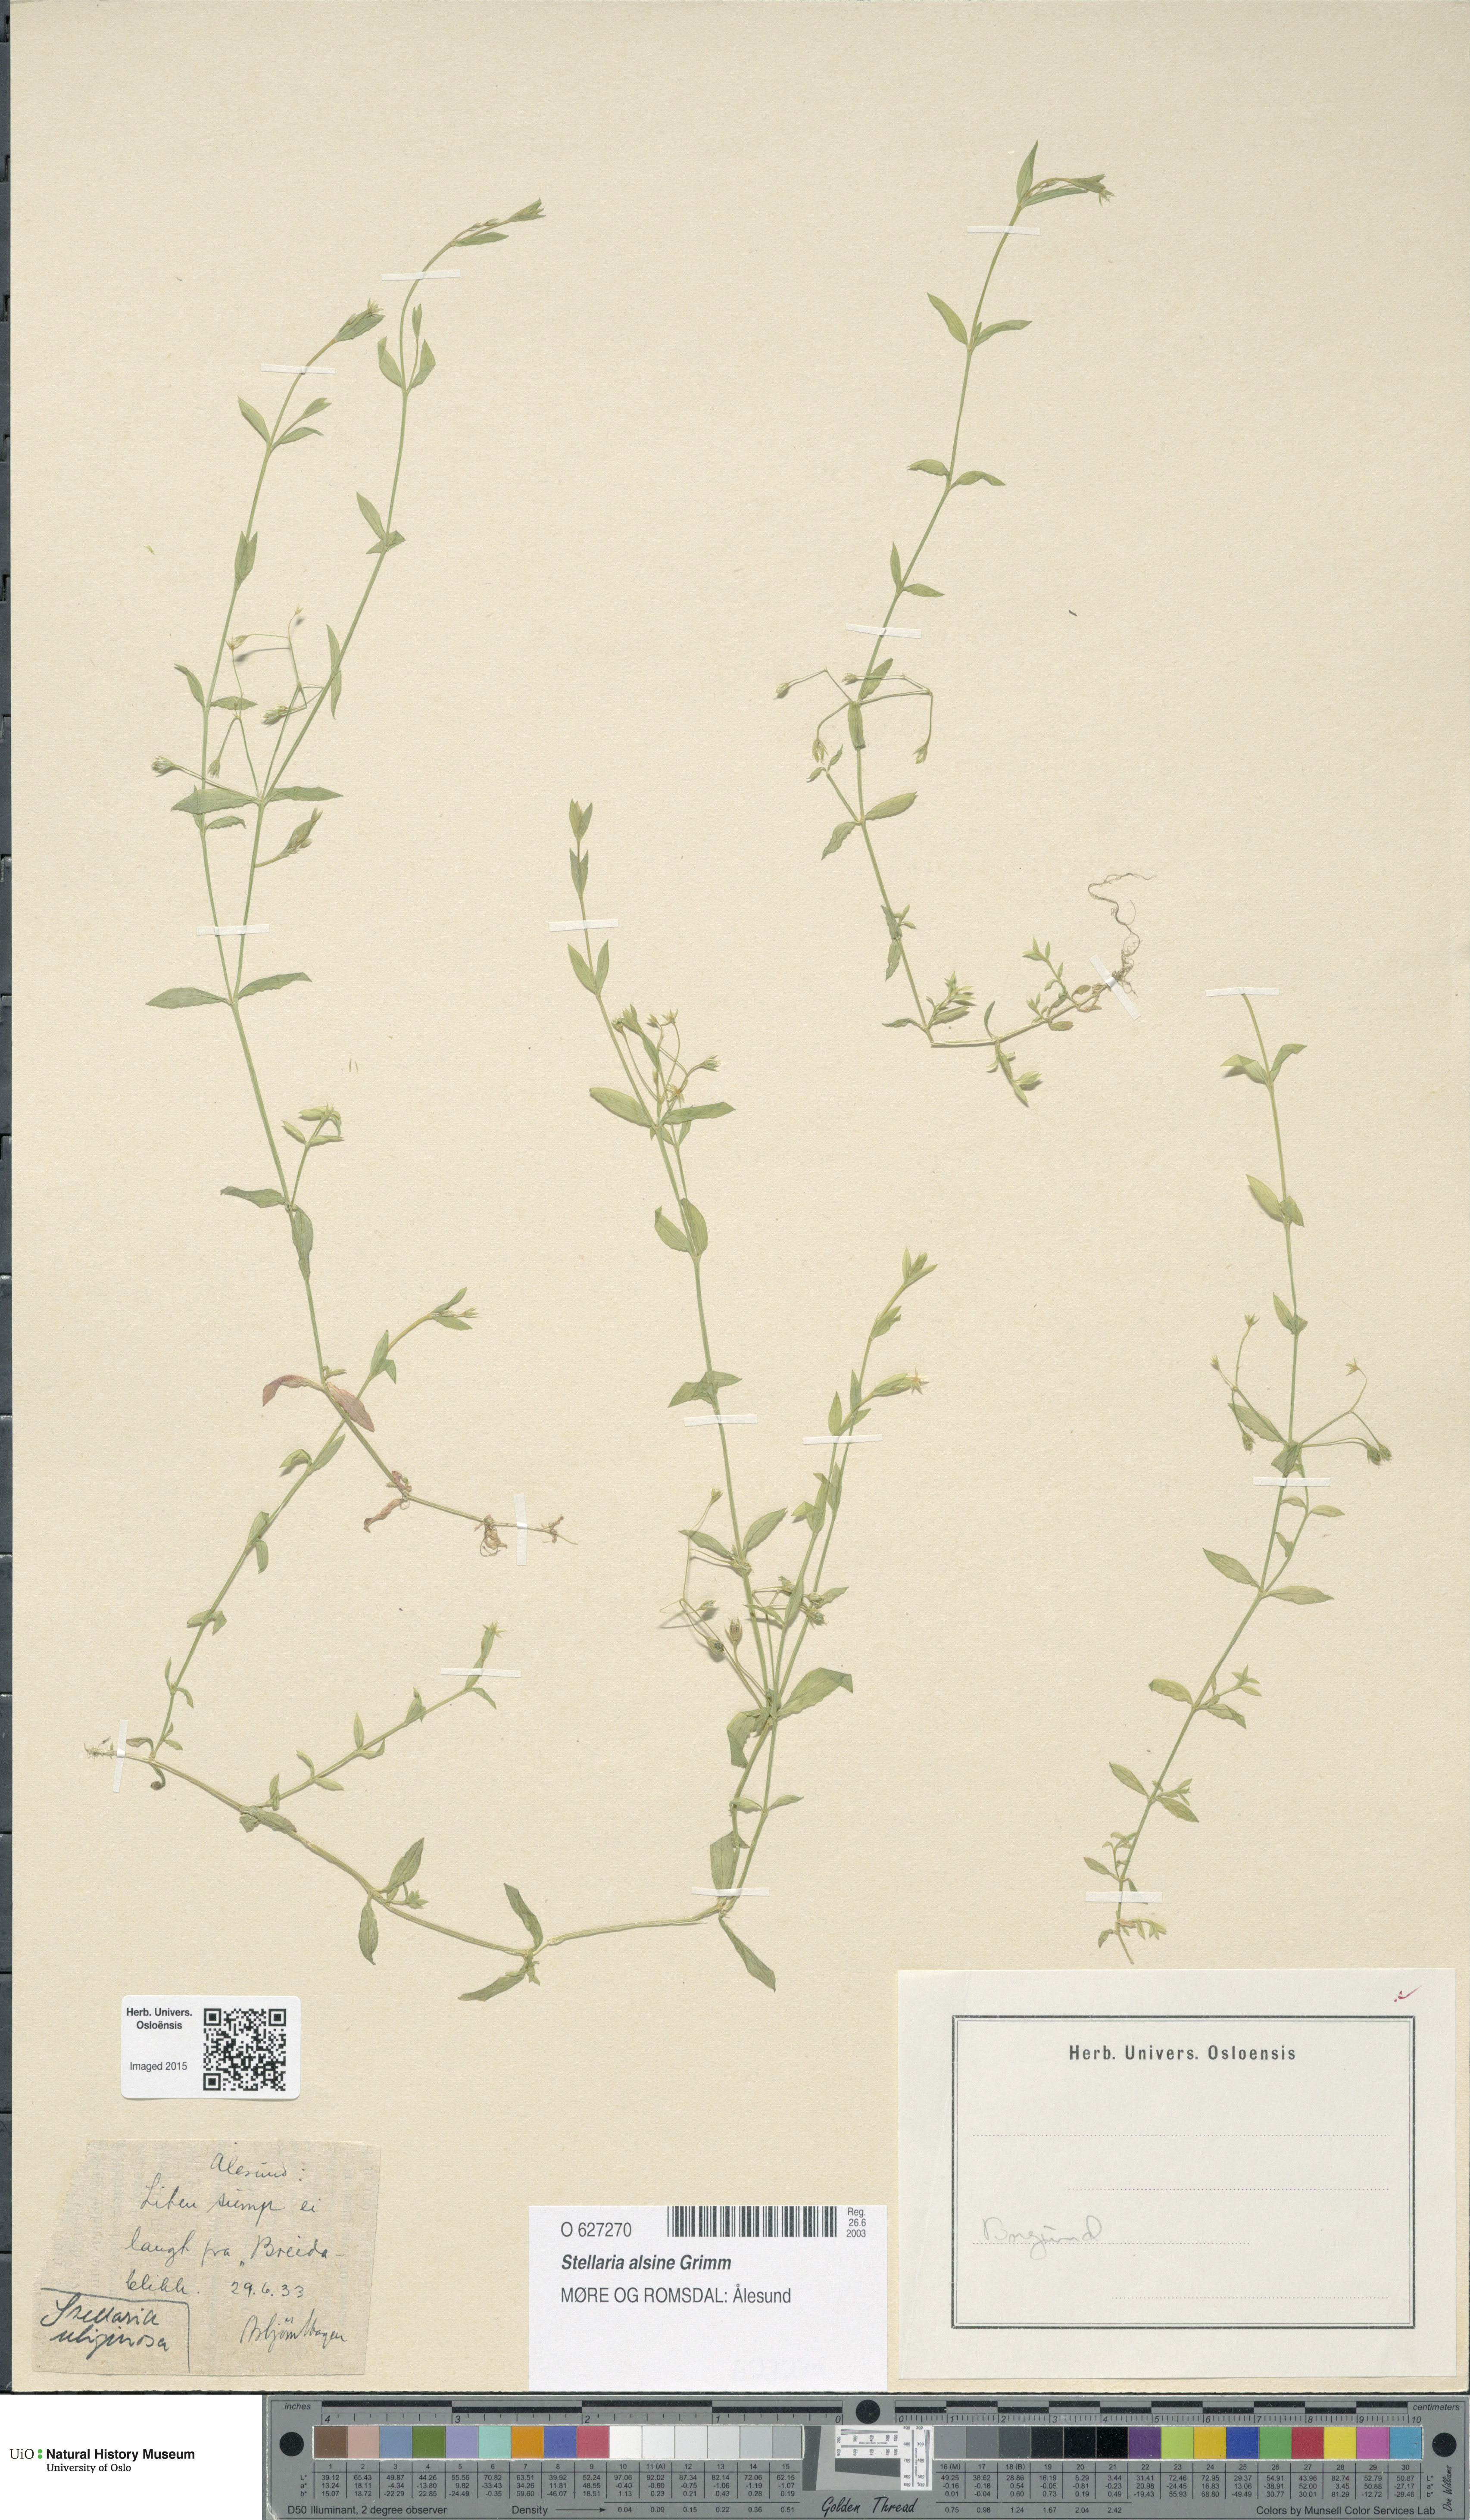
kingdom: Plantae
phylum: Tracheophyta
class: Magnoliopsida
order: Caryophyllales
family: Caryophyllaceae
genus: Stellaria
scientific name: Stellaria alsine
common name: Bog stitchwort
